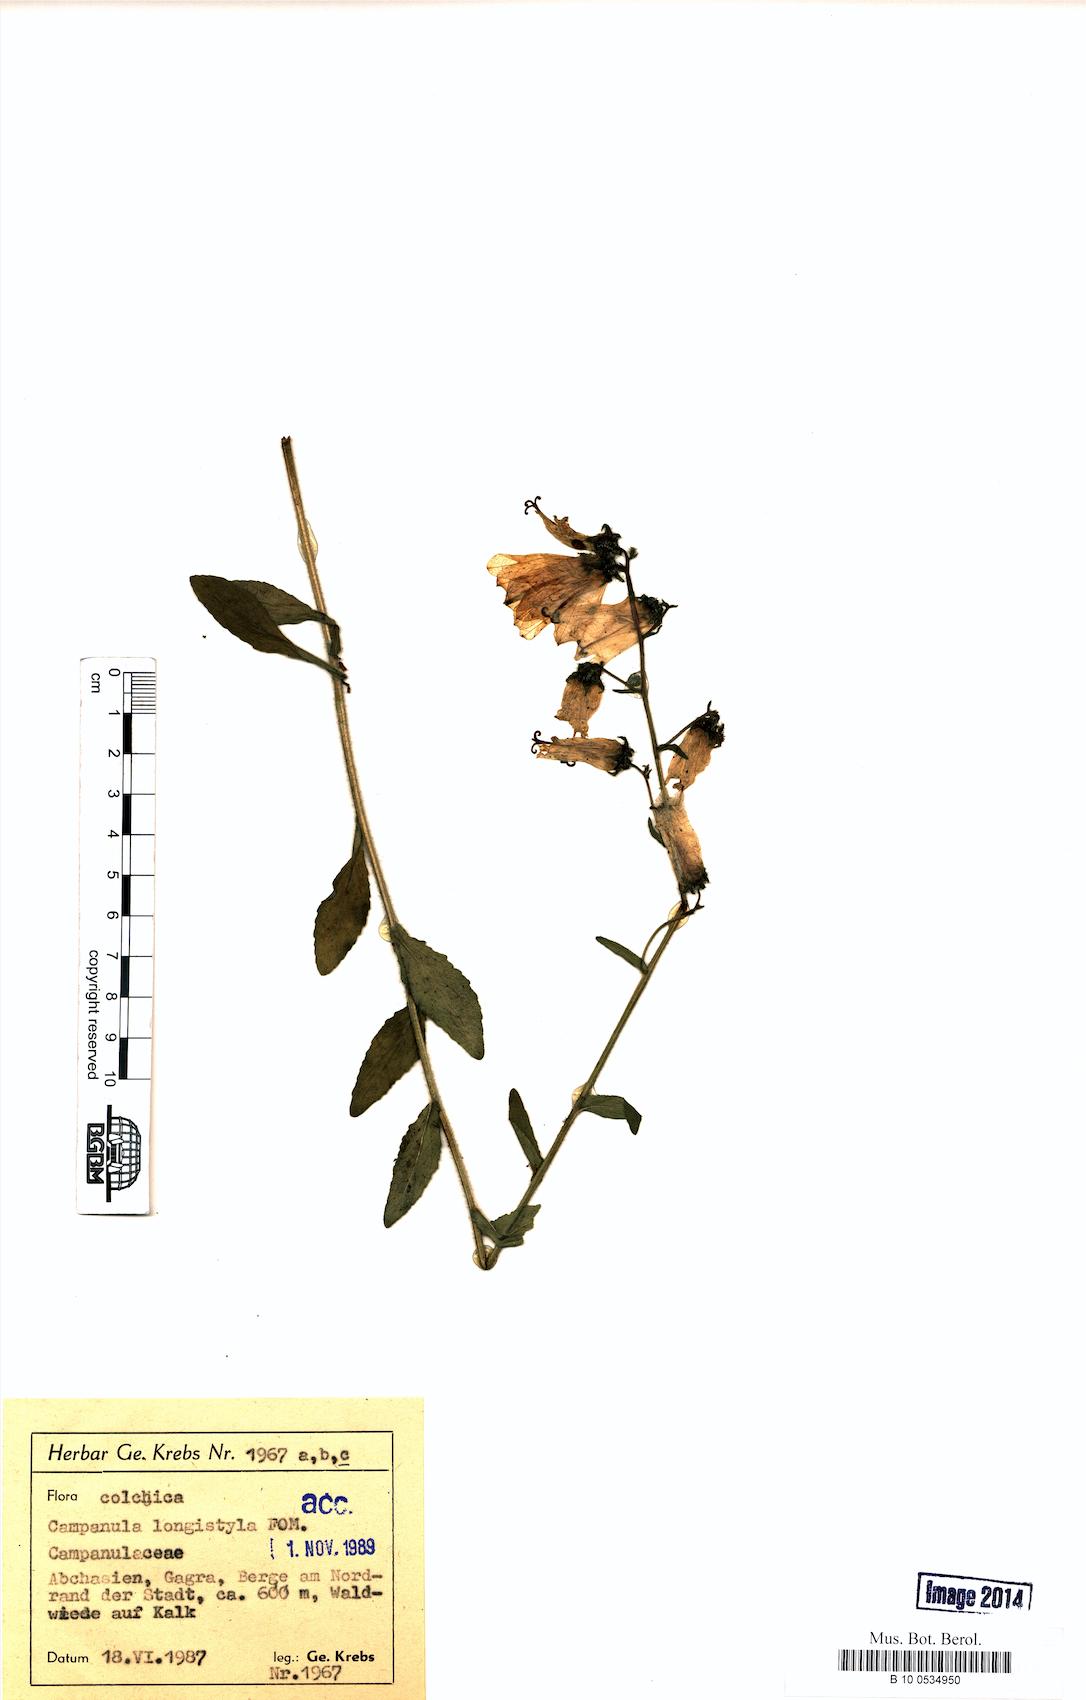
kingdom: Plantae
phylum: Tracheophyta
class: Magnoliopsida
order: Asterales
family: Campanulaceae
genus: Campanula
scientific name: Campanula longistyla
